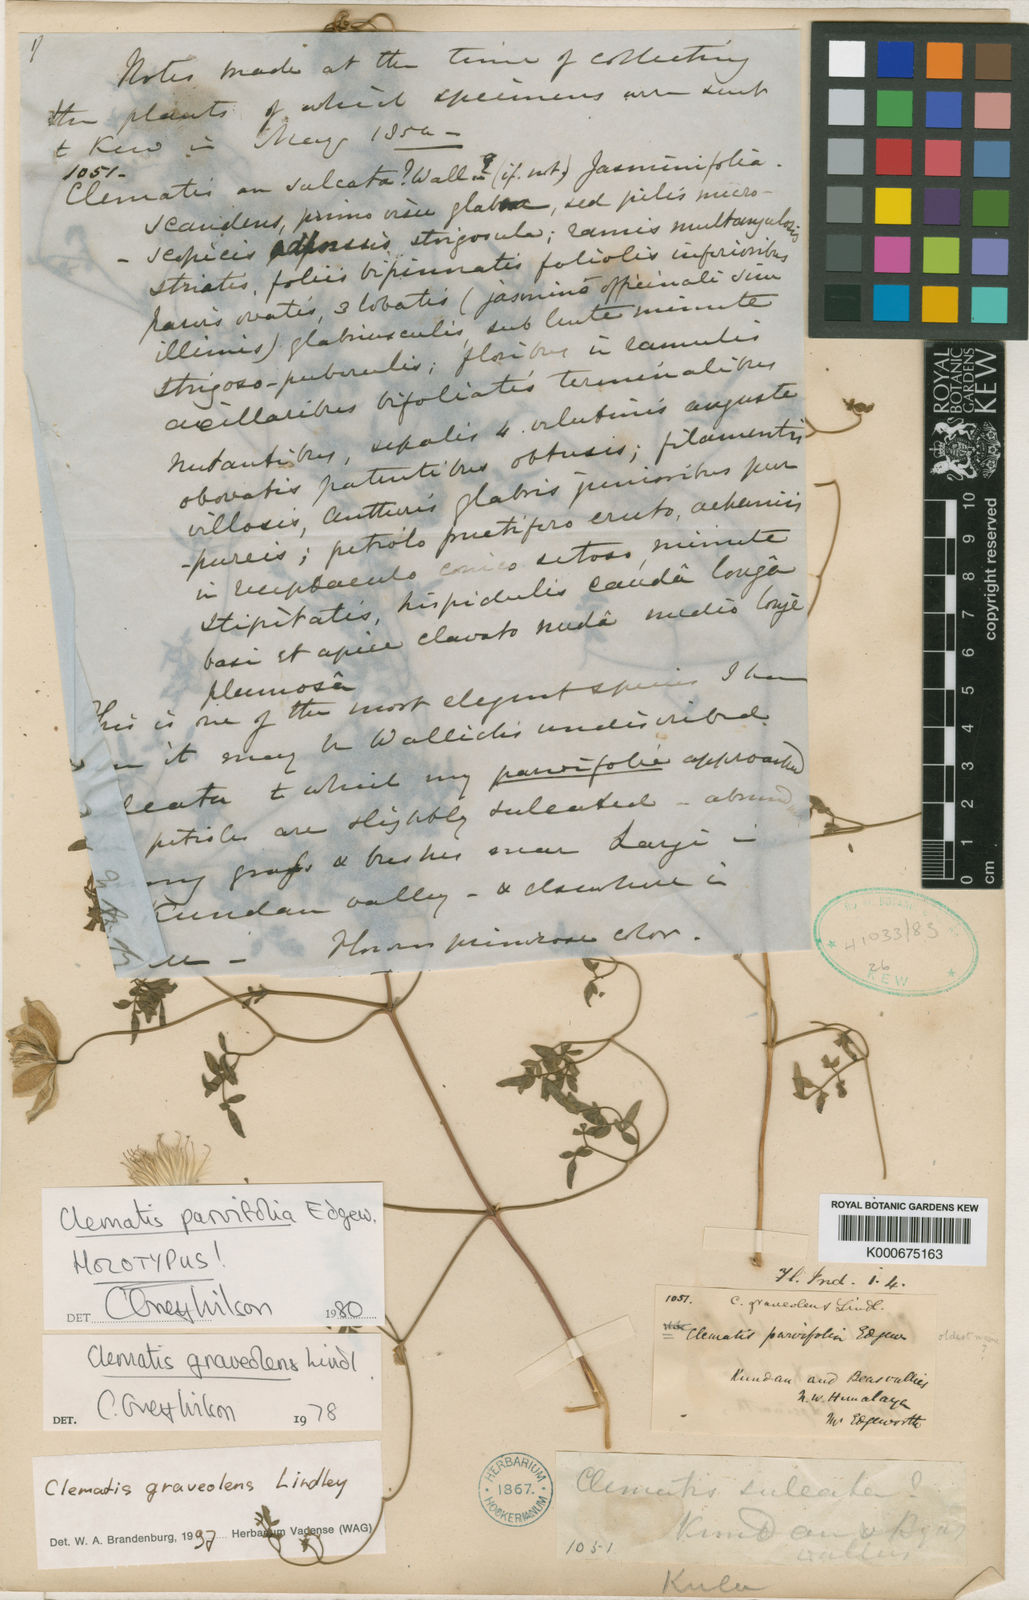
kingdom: Plantae
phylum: Tracheophyta
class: Magnoliopsida
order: Ranunculales
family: Ranunculaceae
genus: Clematis
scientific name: Clematis graveolens
